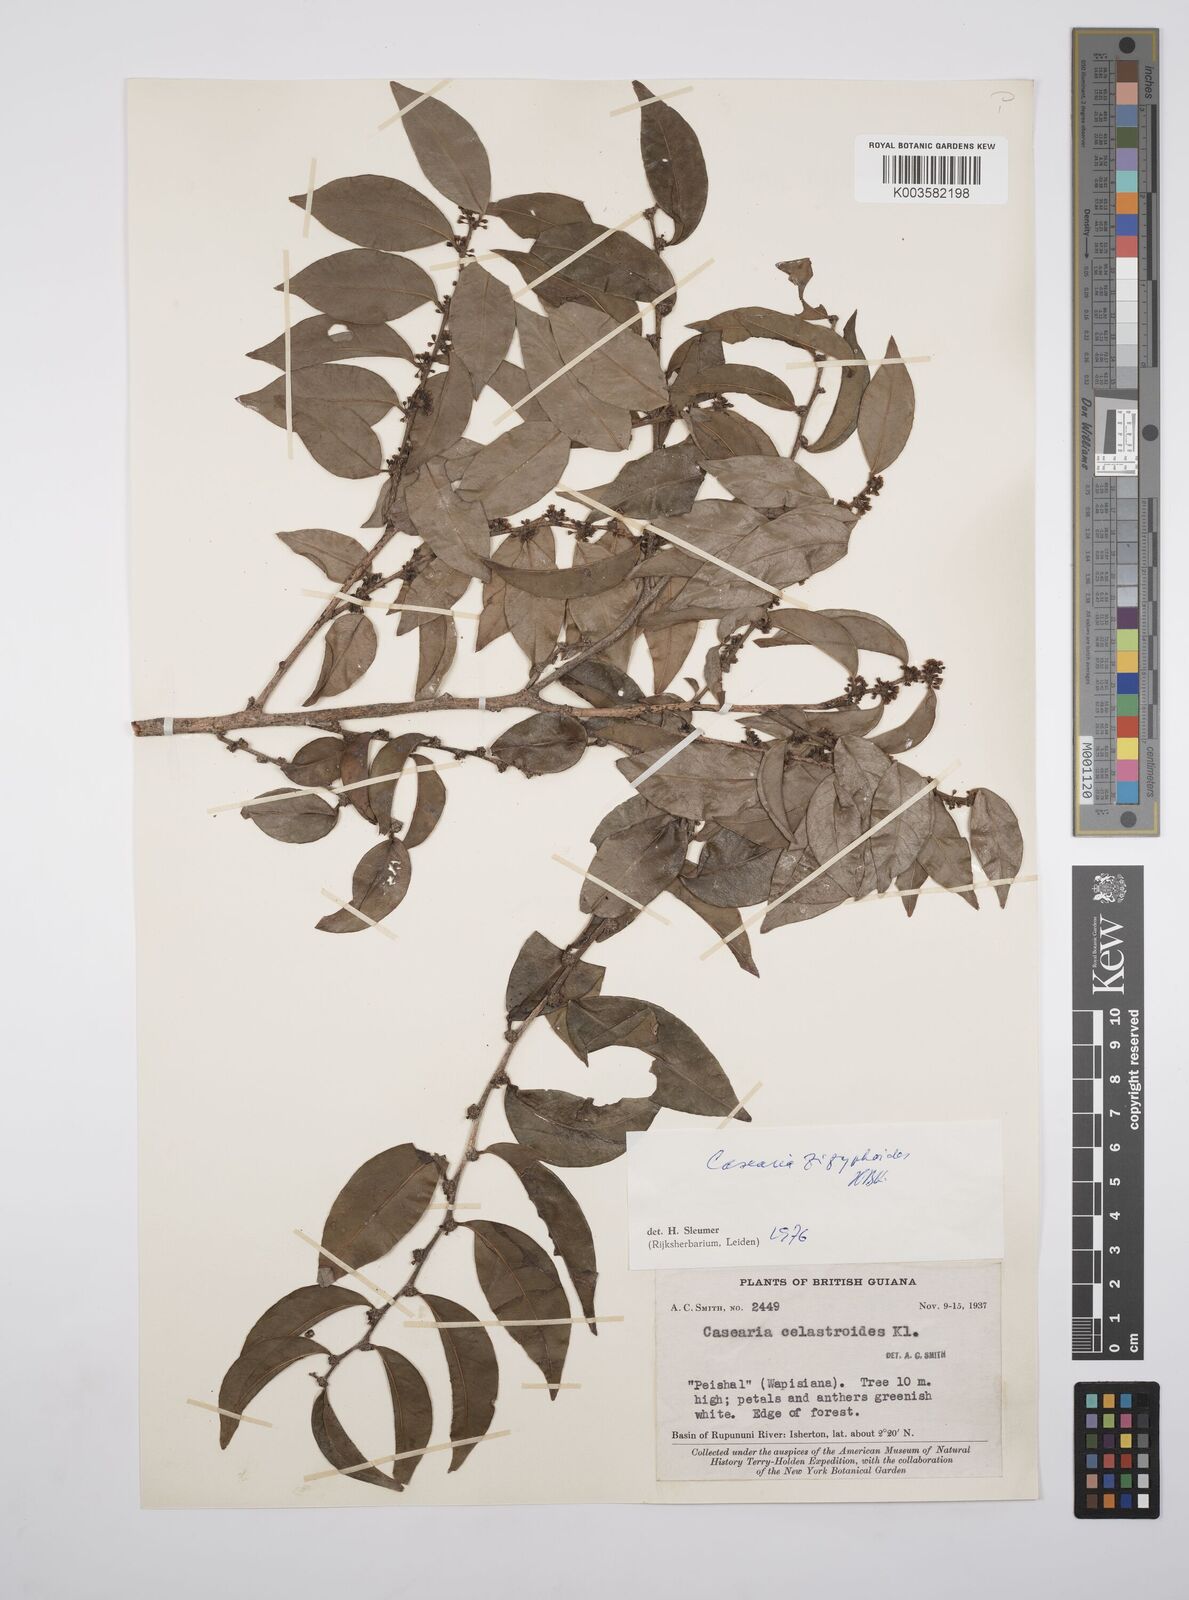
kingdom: Plantae
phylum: Tracheophyta
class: Magnoliopsida
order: Malpighiales
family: Salicaceae
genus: Casearia
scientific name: Casearia zizyphoides
